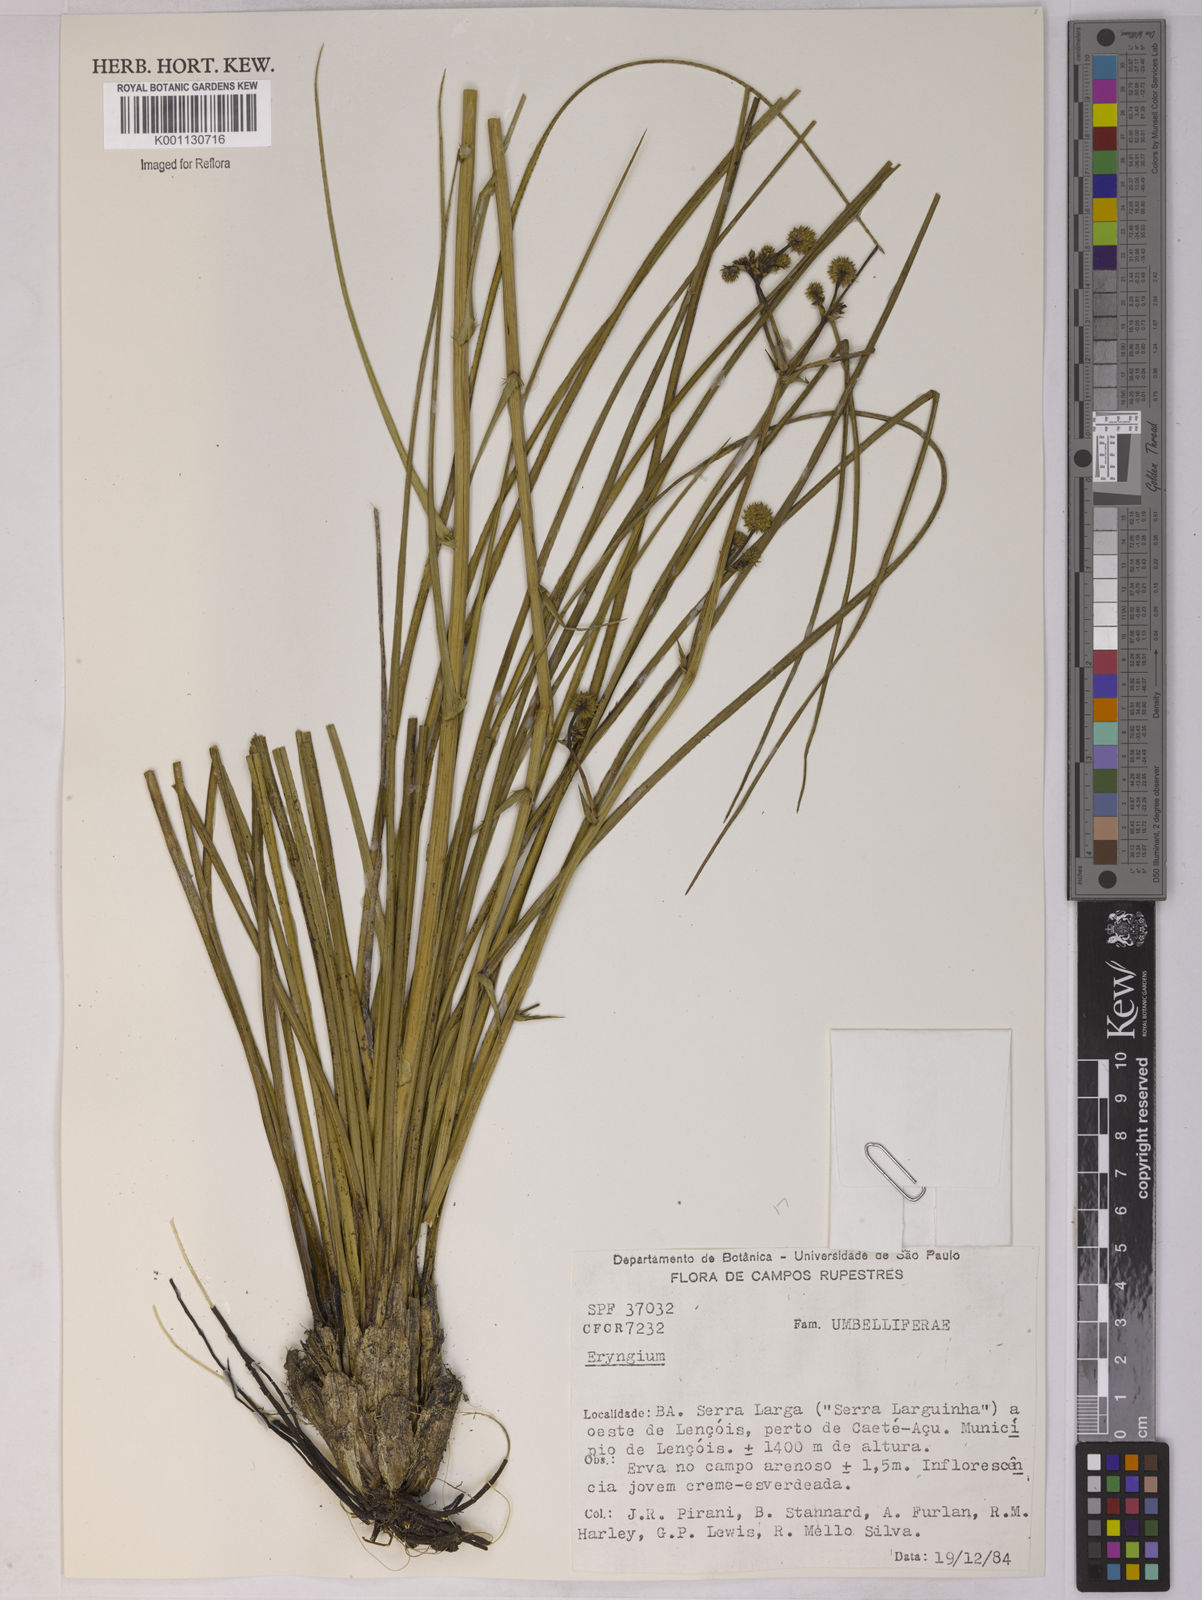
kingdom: Plantae
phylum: Tracheophyta
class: Magnoliopsida
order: Apiales
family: Apiaceae
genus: Eryngium
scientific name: Eryngium
